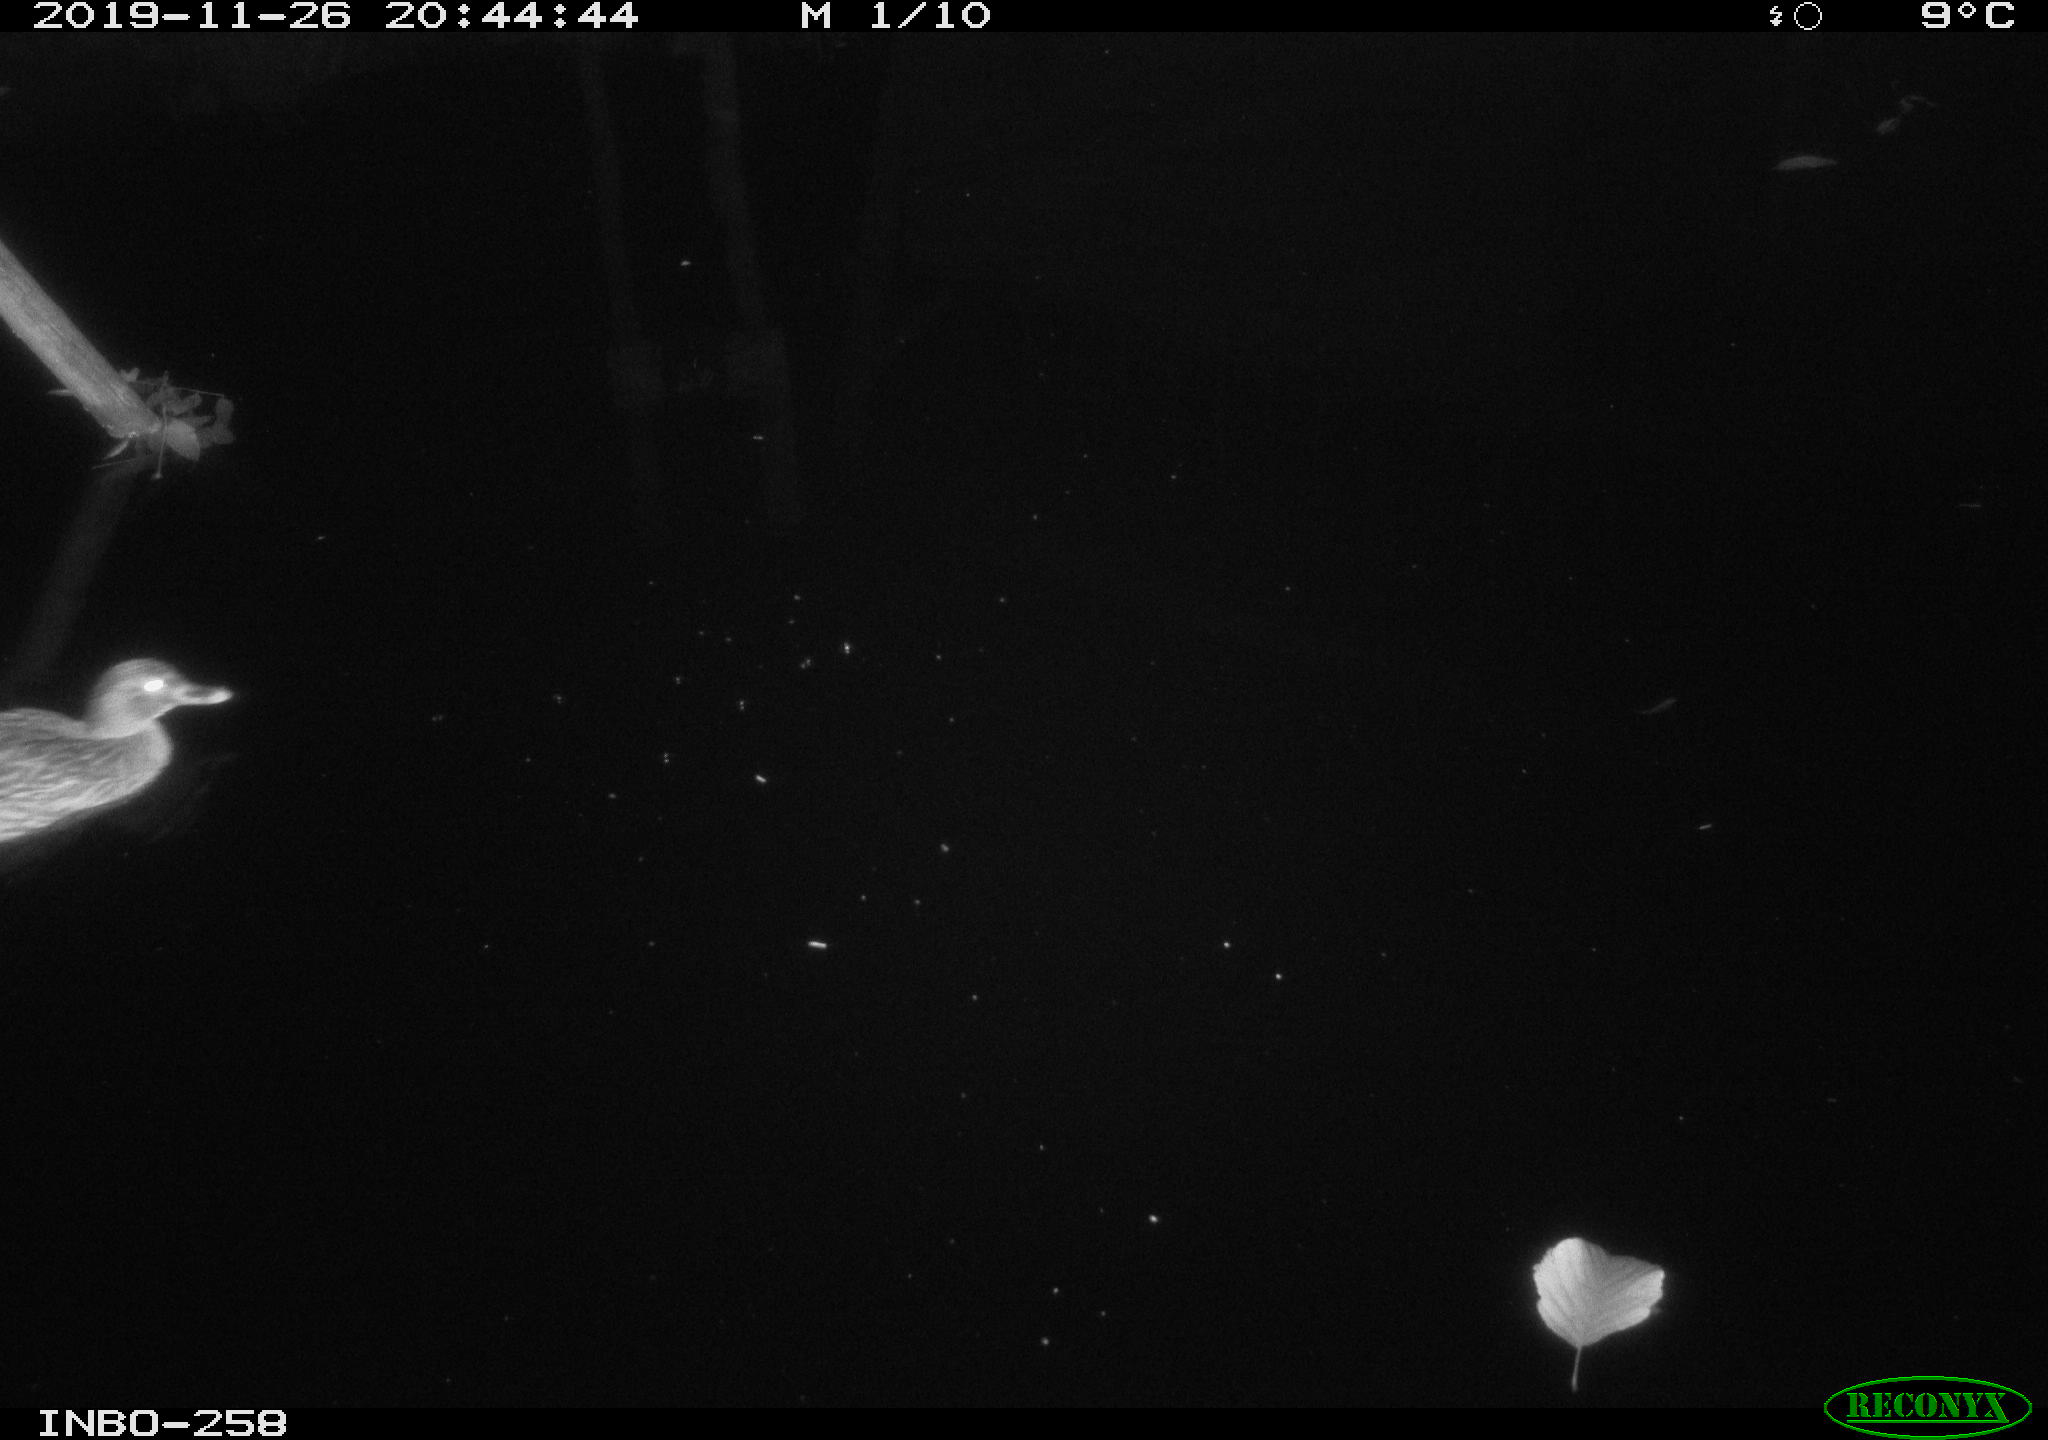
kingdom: Animalia
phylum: Chordata
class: Aves
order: Anseriformes
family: Anatidae
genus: Anas
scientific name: Anas platyrhynchos
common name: Mallard
